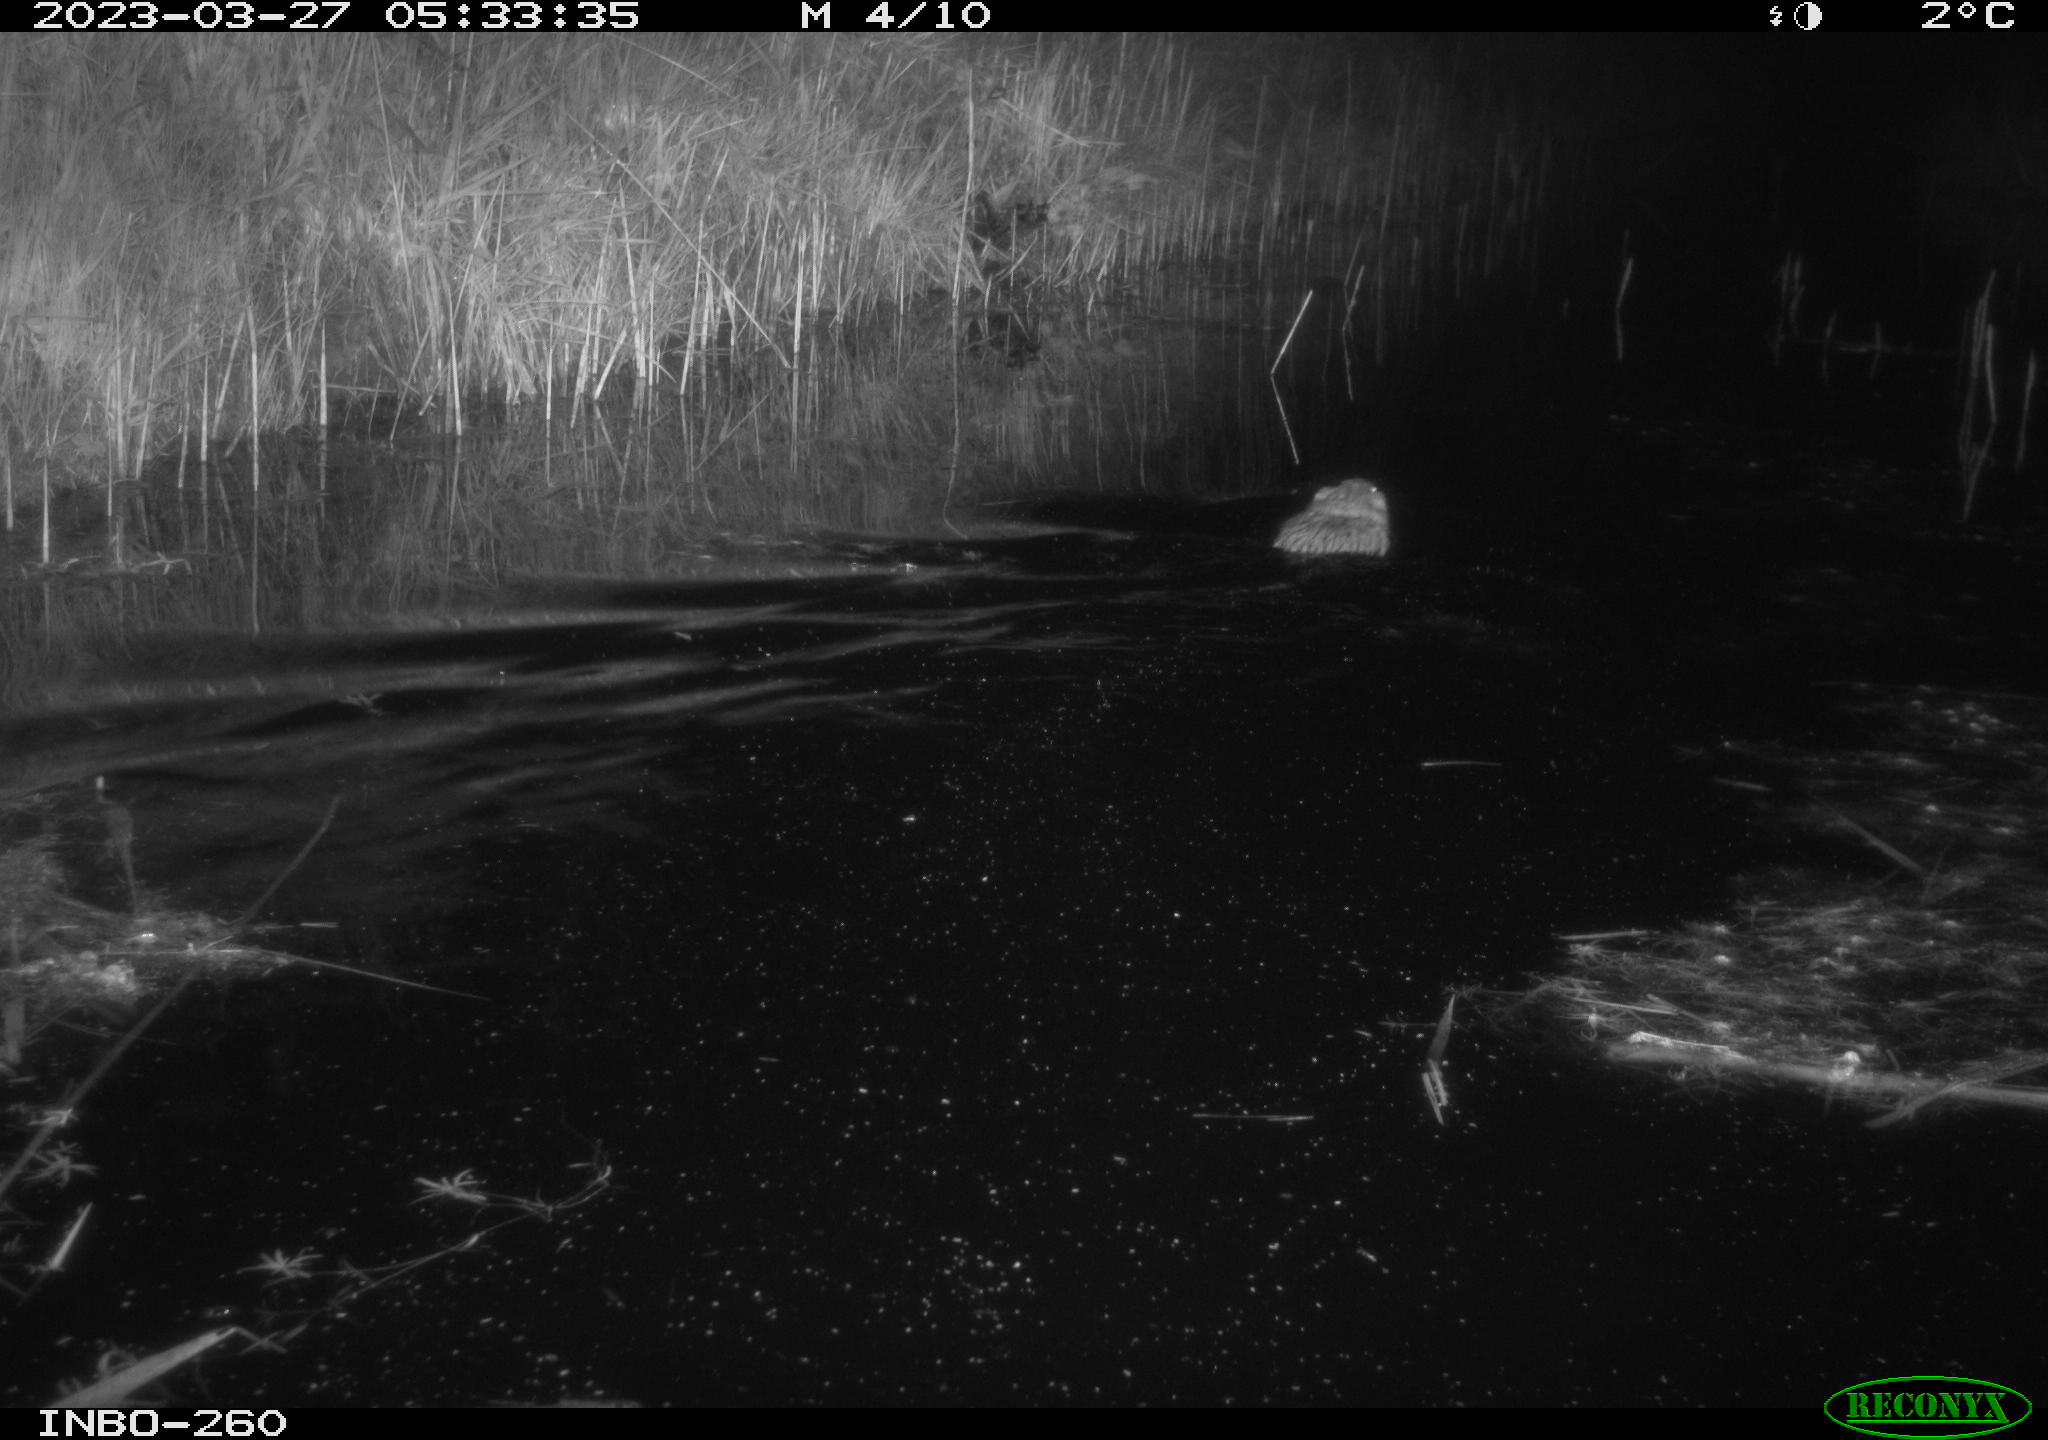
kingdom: Animalia
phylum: Chordata
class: Mammalia
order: Rodentia
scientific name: Rodentia
